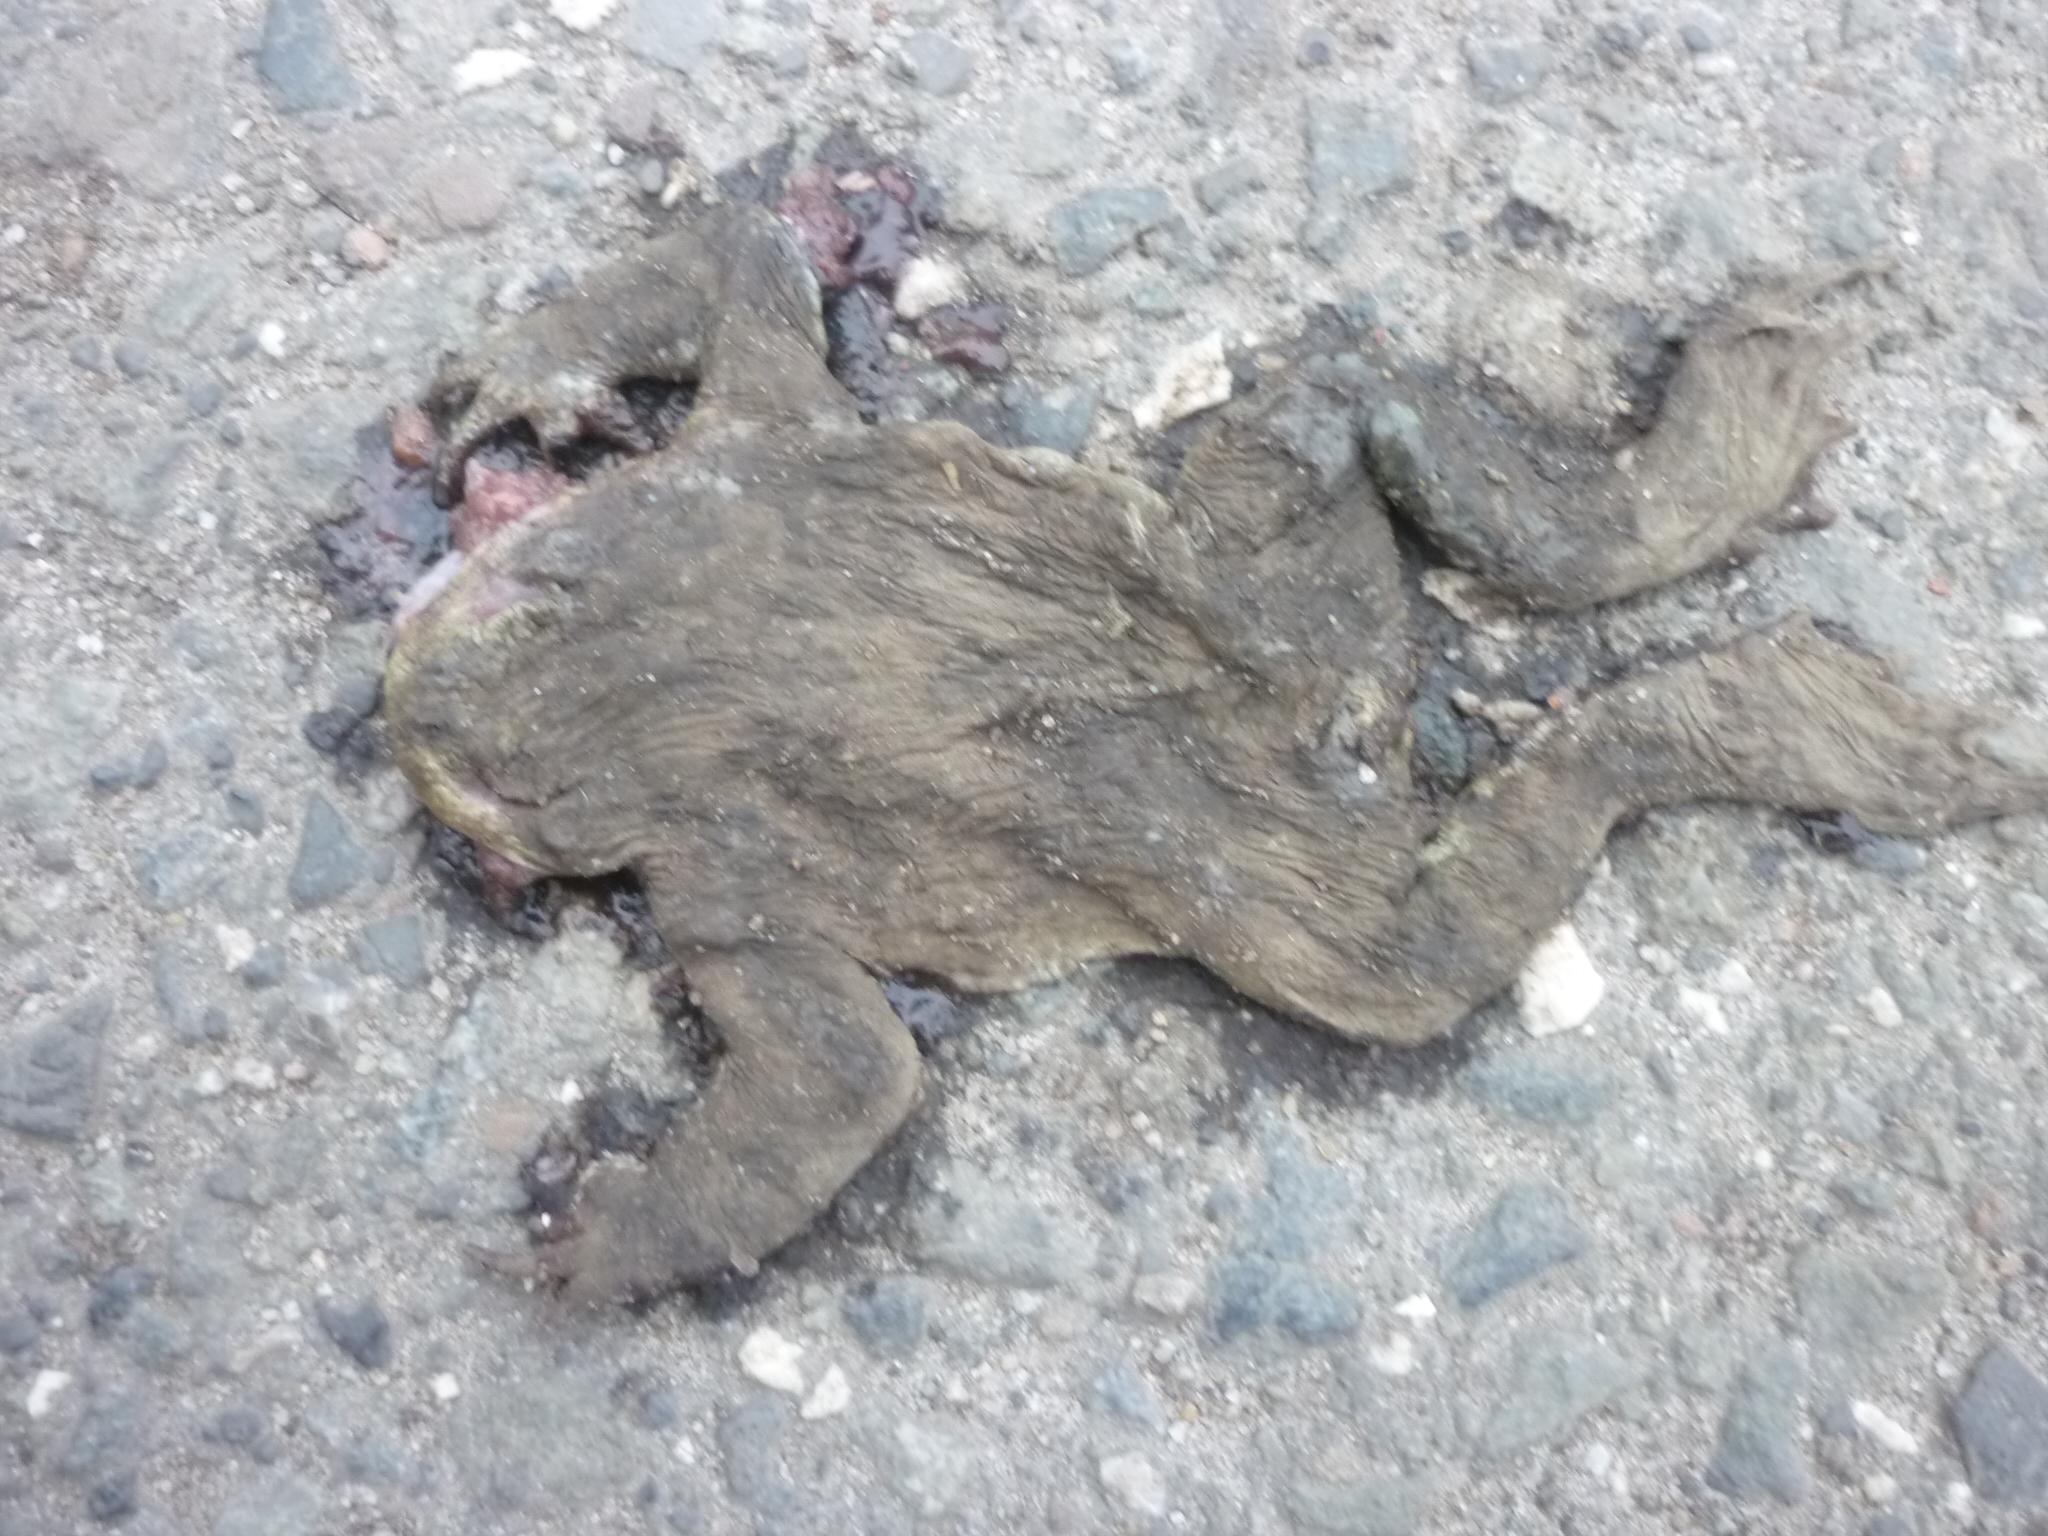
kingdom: Animalia
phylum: Chordata
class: Amphibia
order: Anura
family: Bufonidae
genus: Bufo
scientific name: Bufo bufo
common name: Common toad
